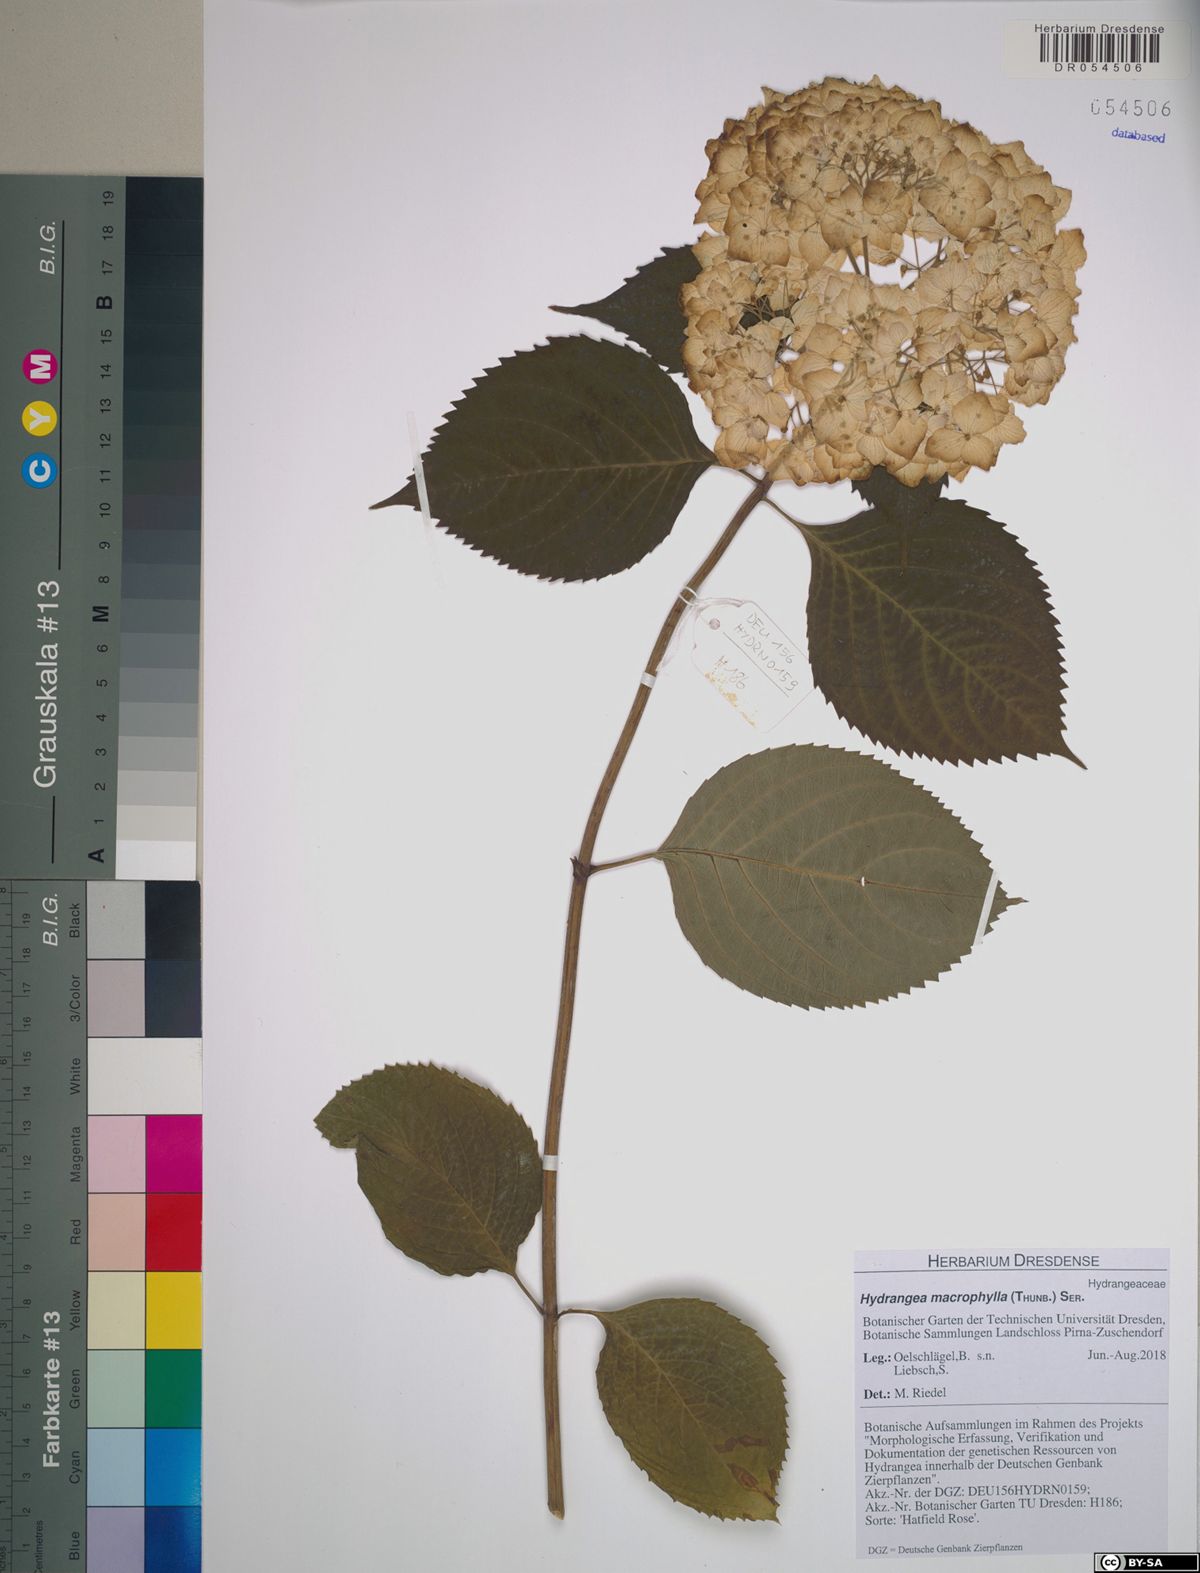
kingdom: Plantae
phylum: Tracheophyta
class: Magnoliopsida
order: Cornales
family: Hydrangeaceae
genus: Hydrangea
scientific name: Hydrangea macrophylla
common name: Hydrangea
